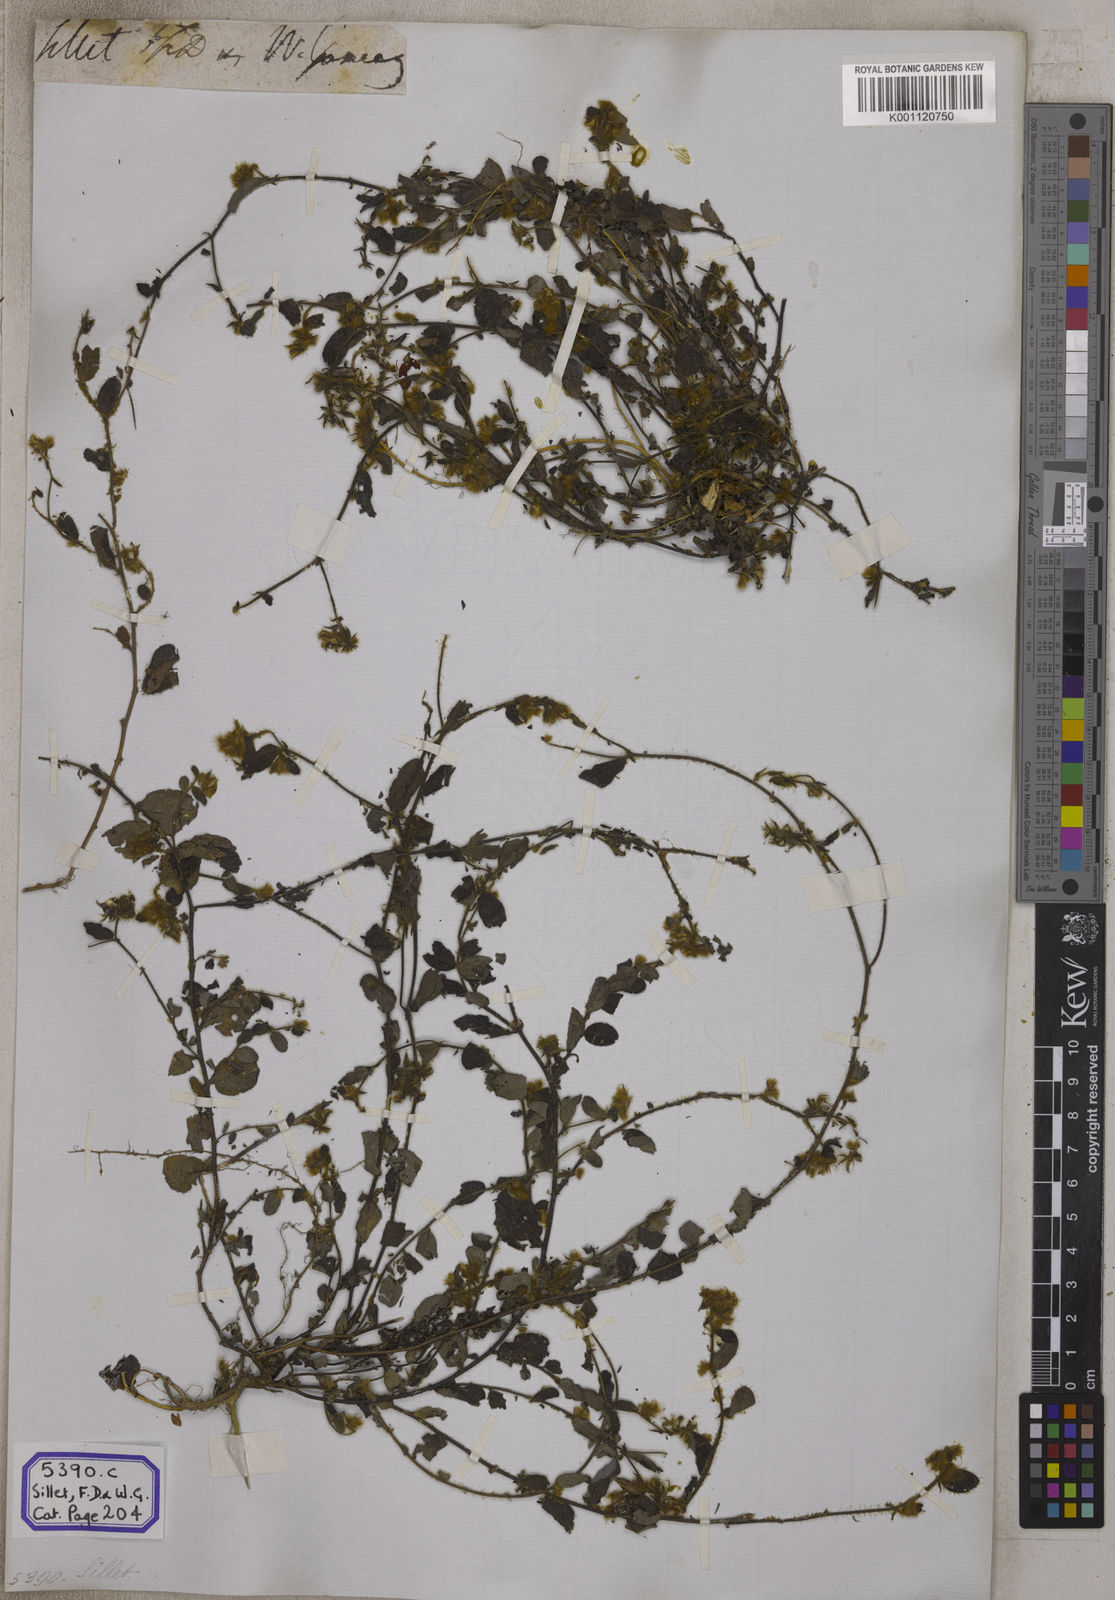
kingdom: Plantae
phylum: Tracheophyta
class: Magnoliopsida
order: Fabales
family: Fabaceae
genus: Crotalaria
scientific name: Crotalaria acicularis
